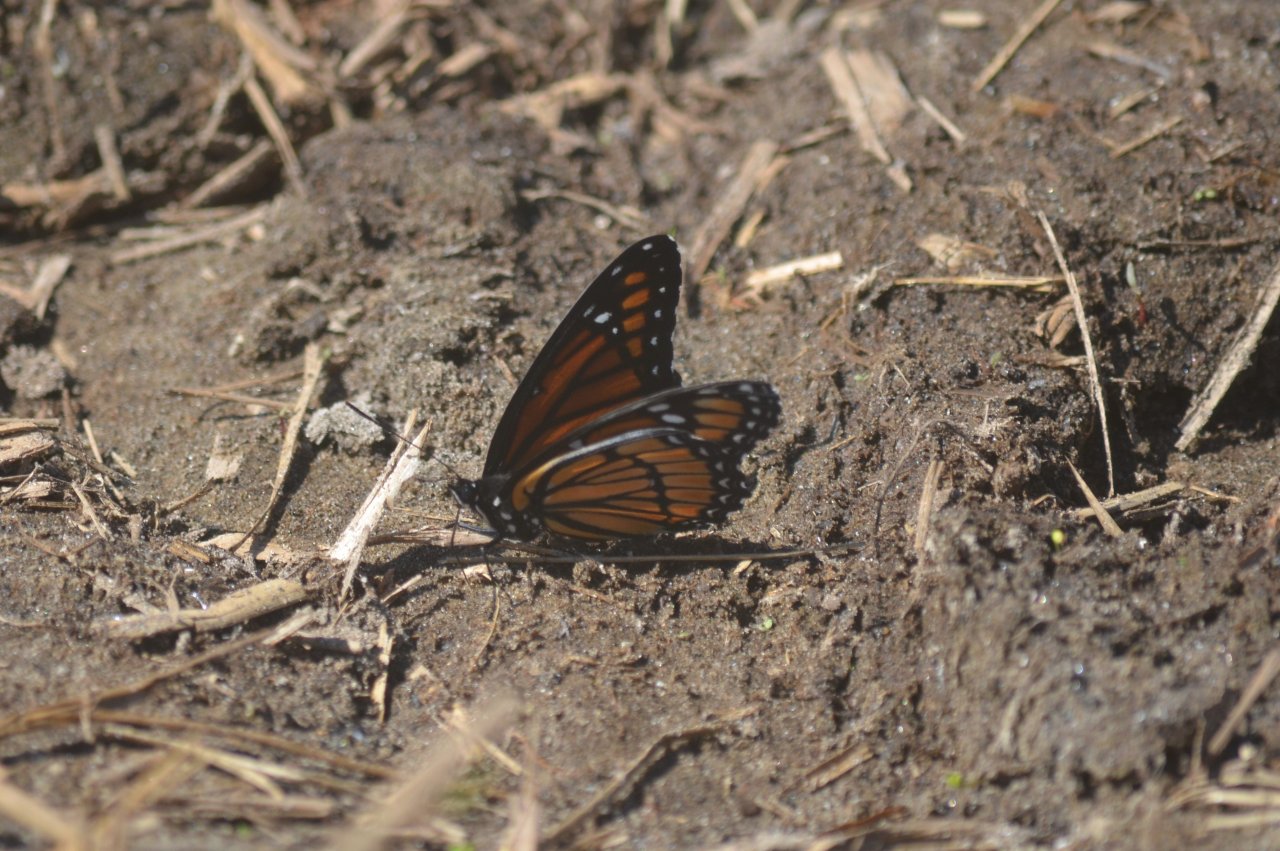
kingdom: Animalia
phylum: Arthropoda
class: Insecta
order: Lepidoptera
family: Nymphalidae
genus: Limenitis
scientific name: Limenitis archippus
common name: Viceroy
